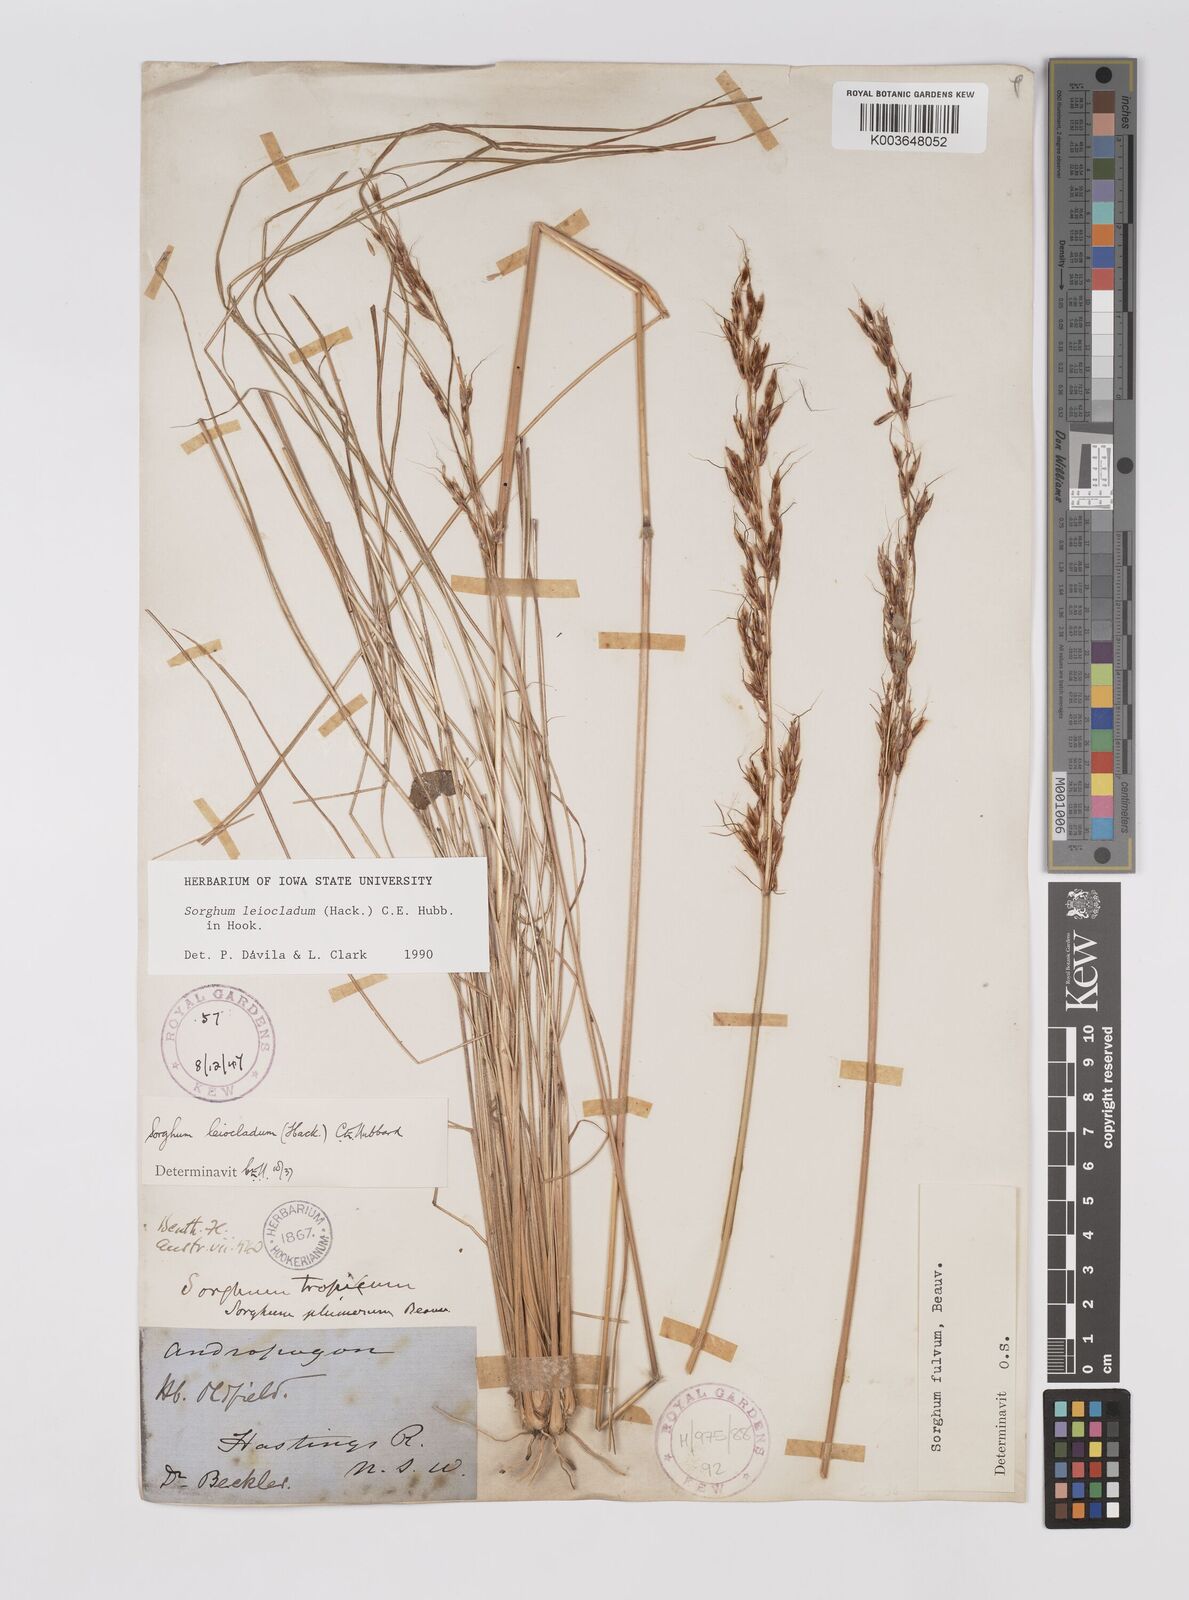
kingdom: Plantae
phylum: Tracheophyta
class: Liliopsida
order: Poales
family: Poaceae
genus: Sarga
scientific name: Sarga leioclada
